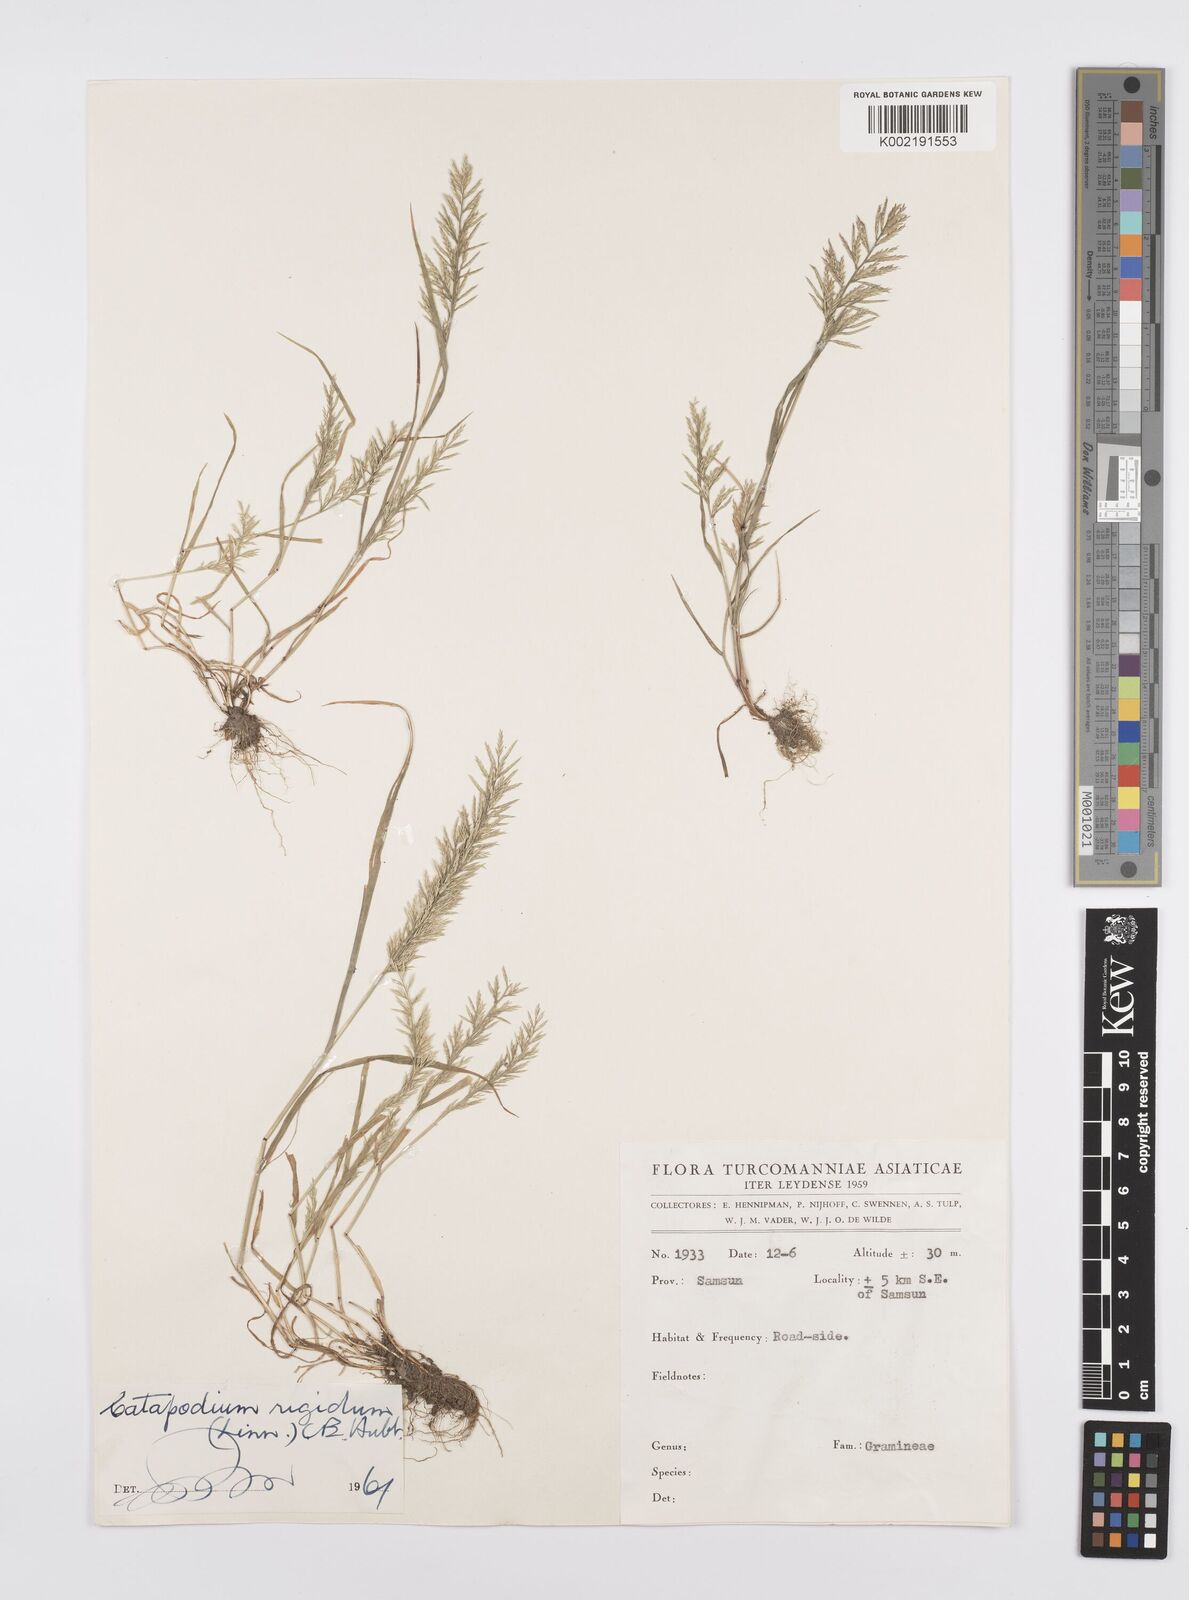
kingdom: Plantae
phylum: Tracheophyta
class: Liliopsida
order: Poales
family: Poaceae
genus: Catapodium
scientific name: Catapodium rigidum
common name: Fern-grass
